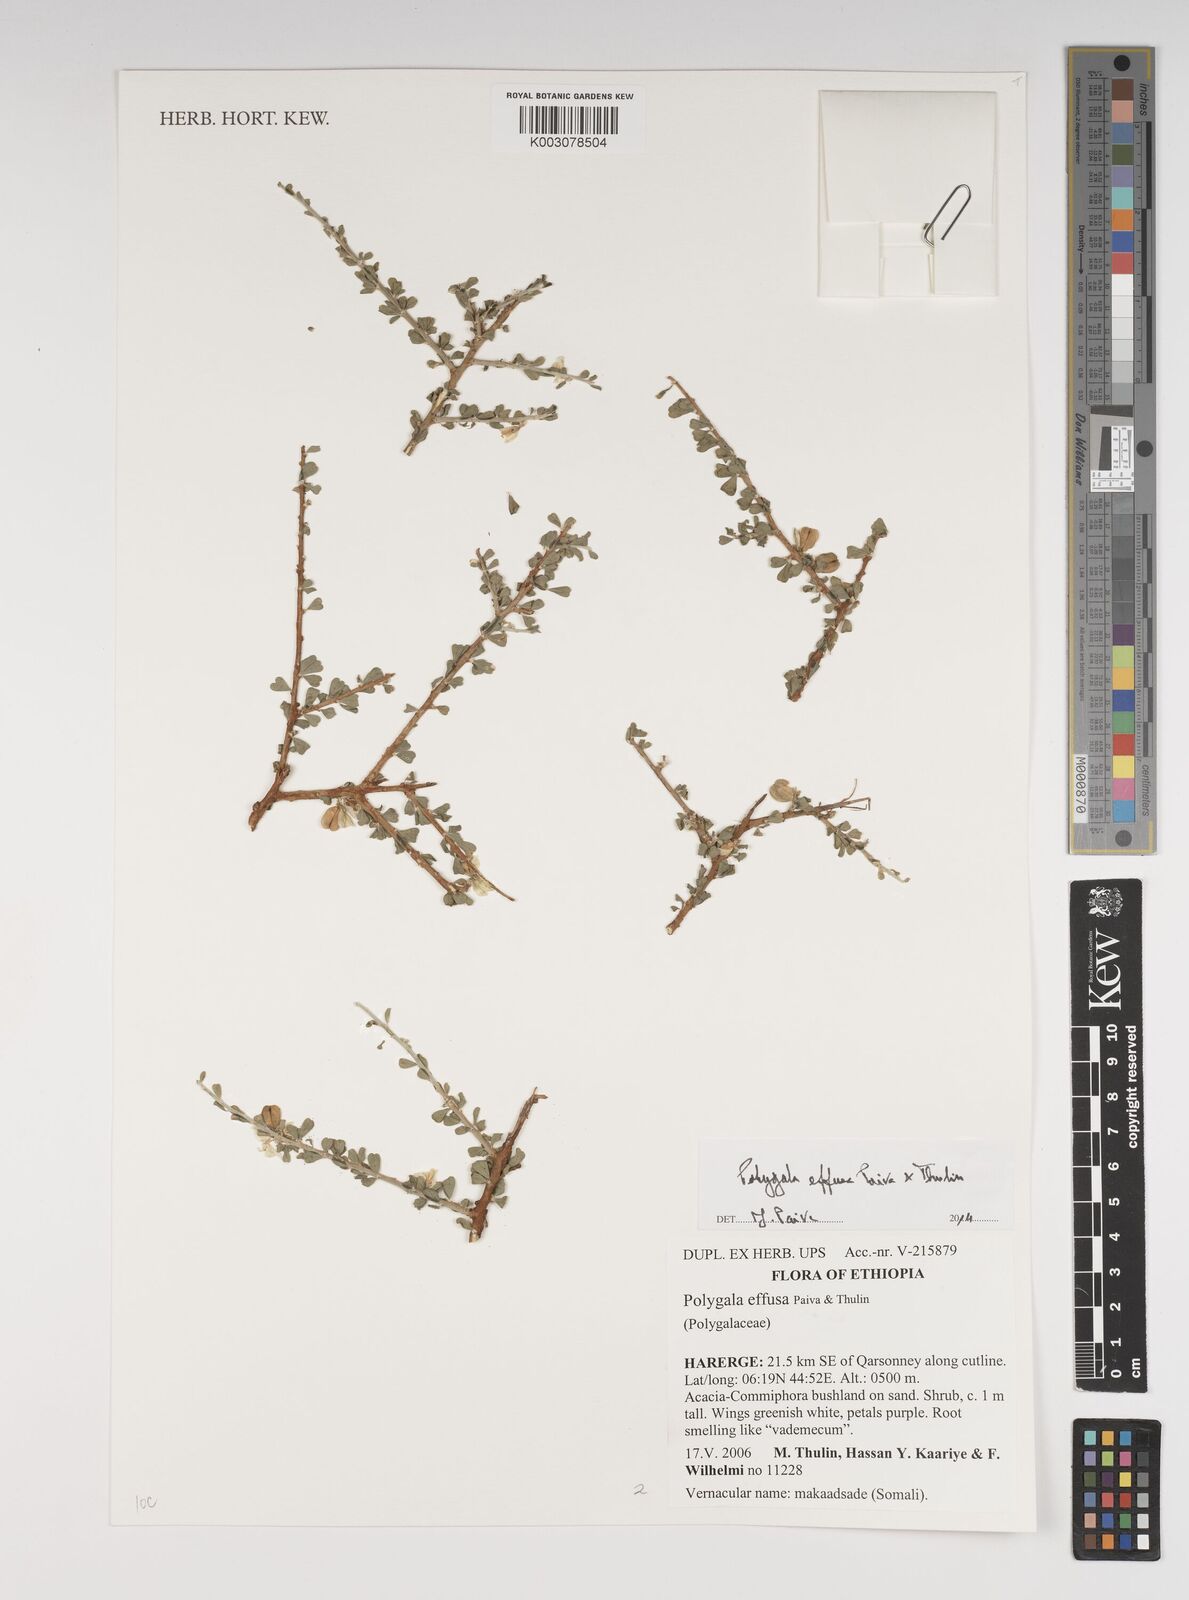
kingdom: Plantae
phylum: Tracheophyta
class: Magnoliopsida
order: Fabales
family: Polygalaceae
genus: Polygala
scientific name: Polygala effusa
